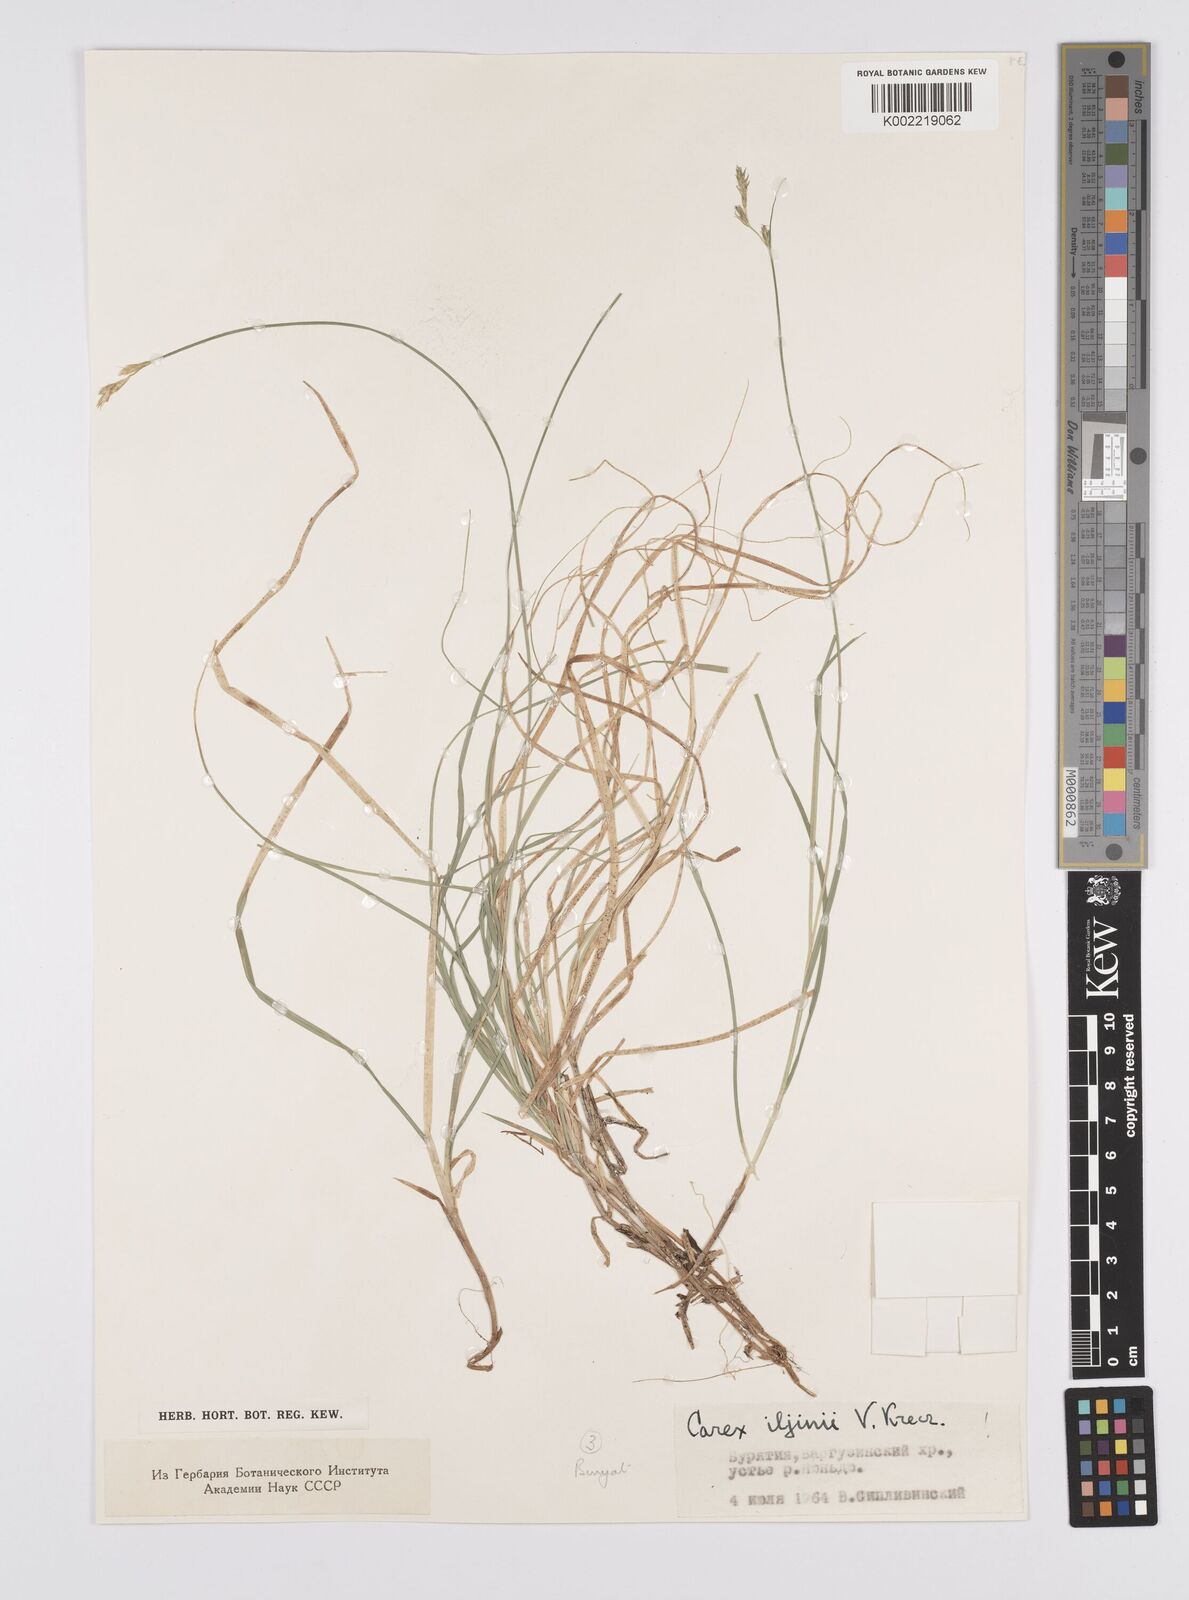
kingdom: Plantae
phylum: Tracheophyta
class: Liliopsida
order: Poales
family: Cyperaceae
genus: Carex
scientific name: Carex iljinii
